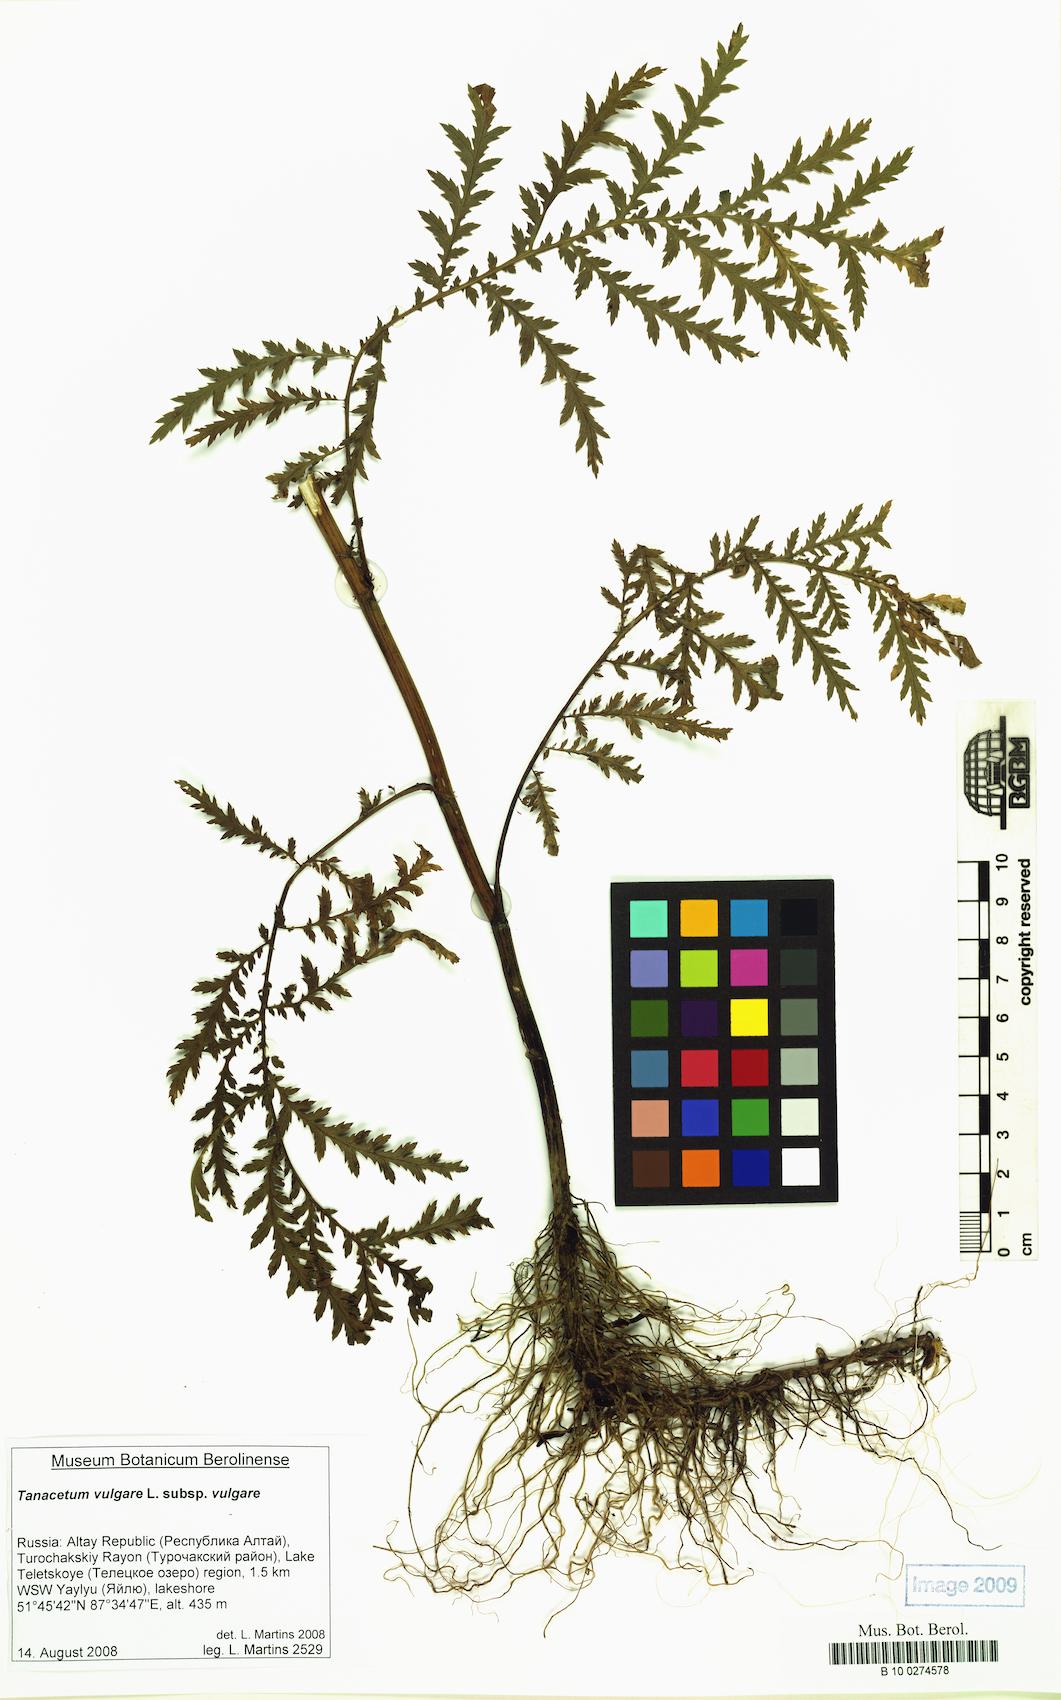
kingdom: Plantae
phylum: Tracheophyta
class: Magnoliopsida
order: Asterales
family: Asteraceae
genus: Tanacetum
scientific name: Tanacetum vulgare
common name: Common tansy
